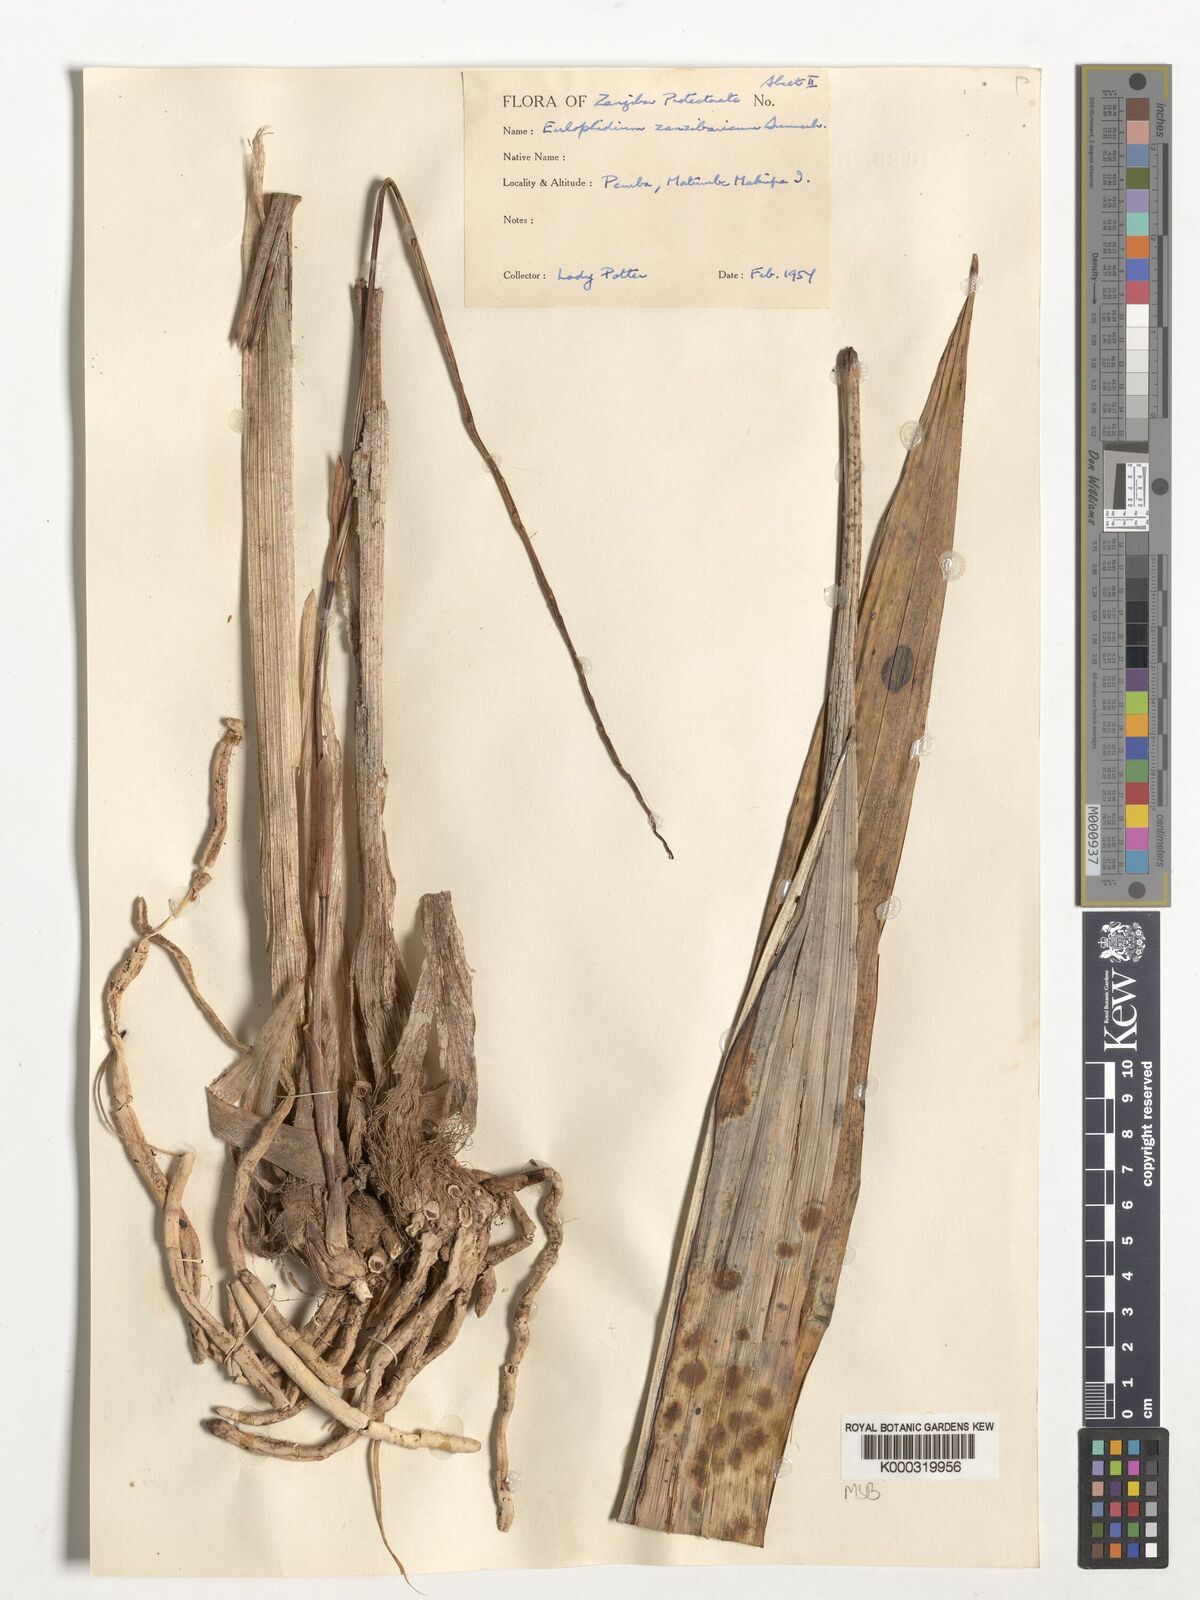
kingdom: Plantae
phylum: Tracheophyta
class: Liliopsida
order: Asparagales
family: Orchidaceae
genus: Eulophia
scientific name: Eulophia zanzibarica
